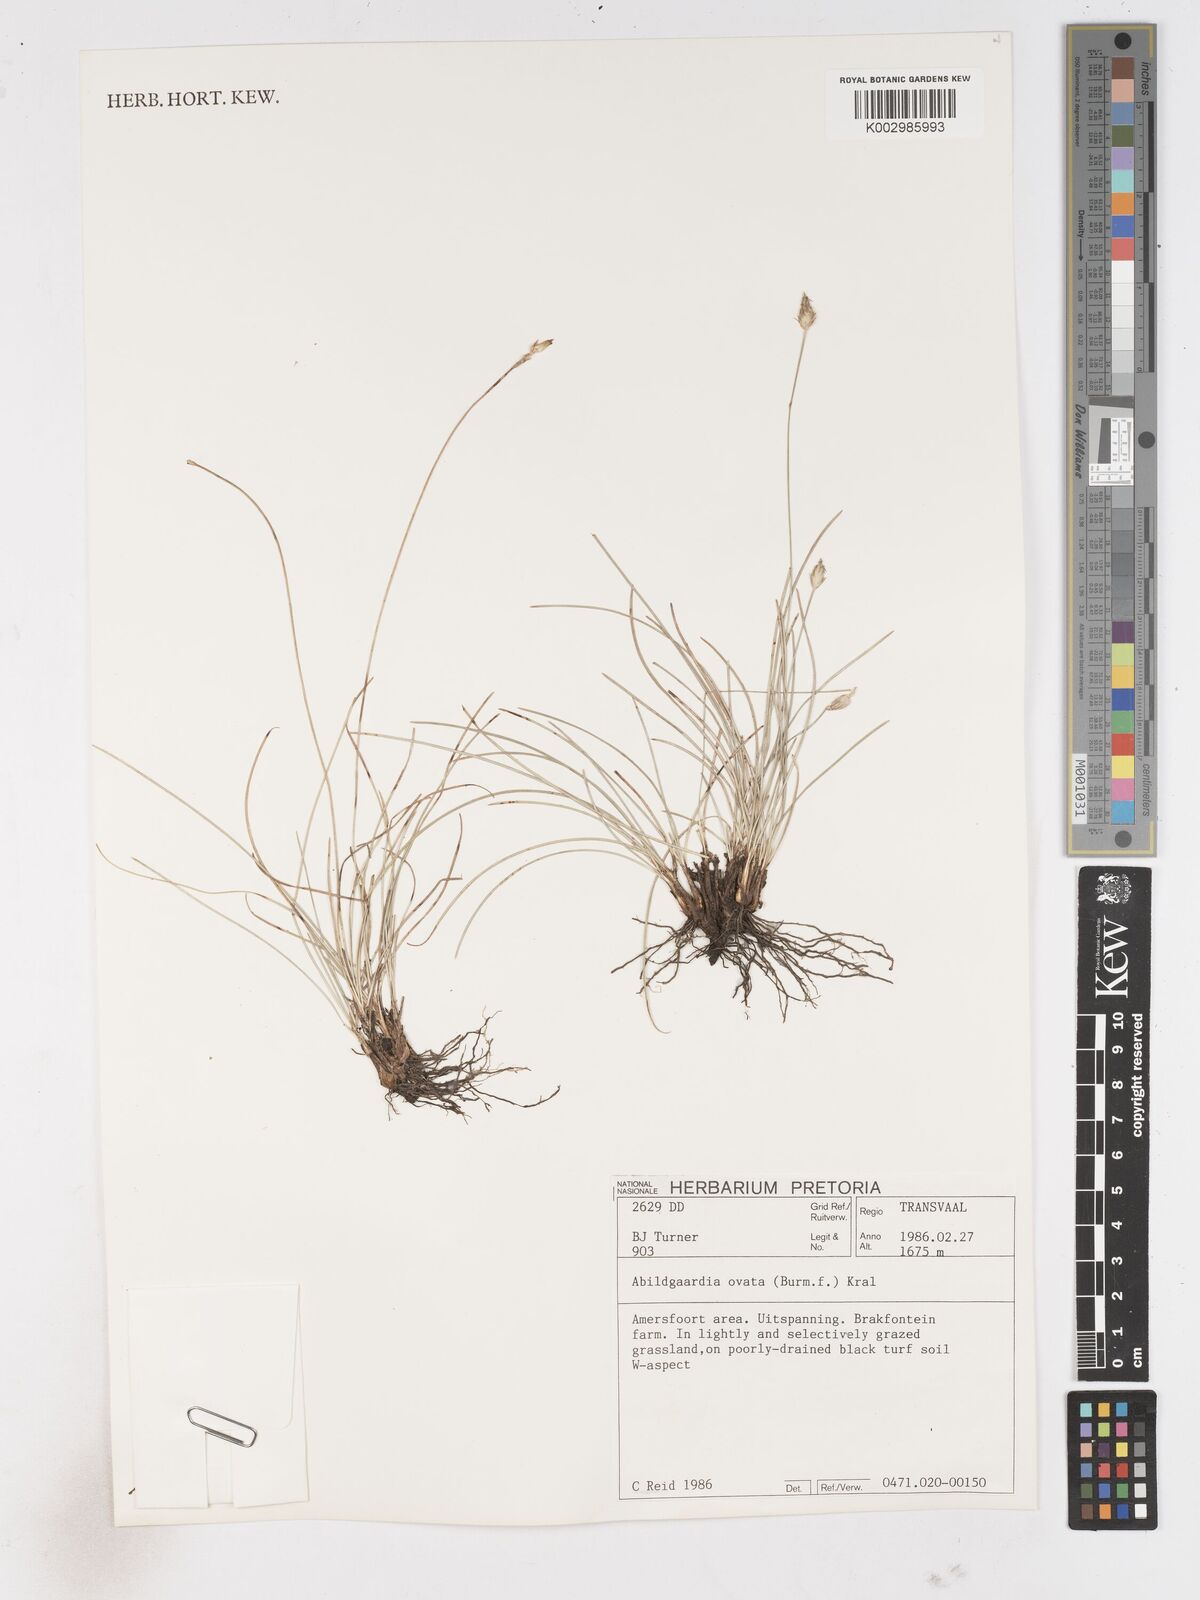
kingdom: Plantae
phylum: Tracheophyta
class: Liliopsida
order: Poales
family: Cyperaceae
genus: Abildgaardia
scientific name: Abildgaardia ovata
